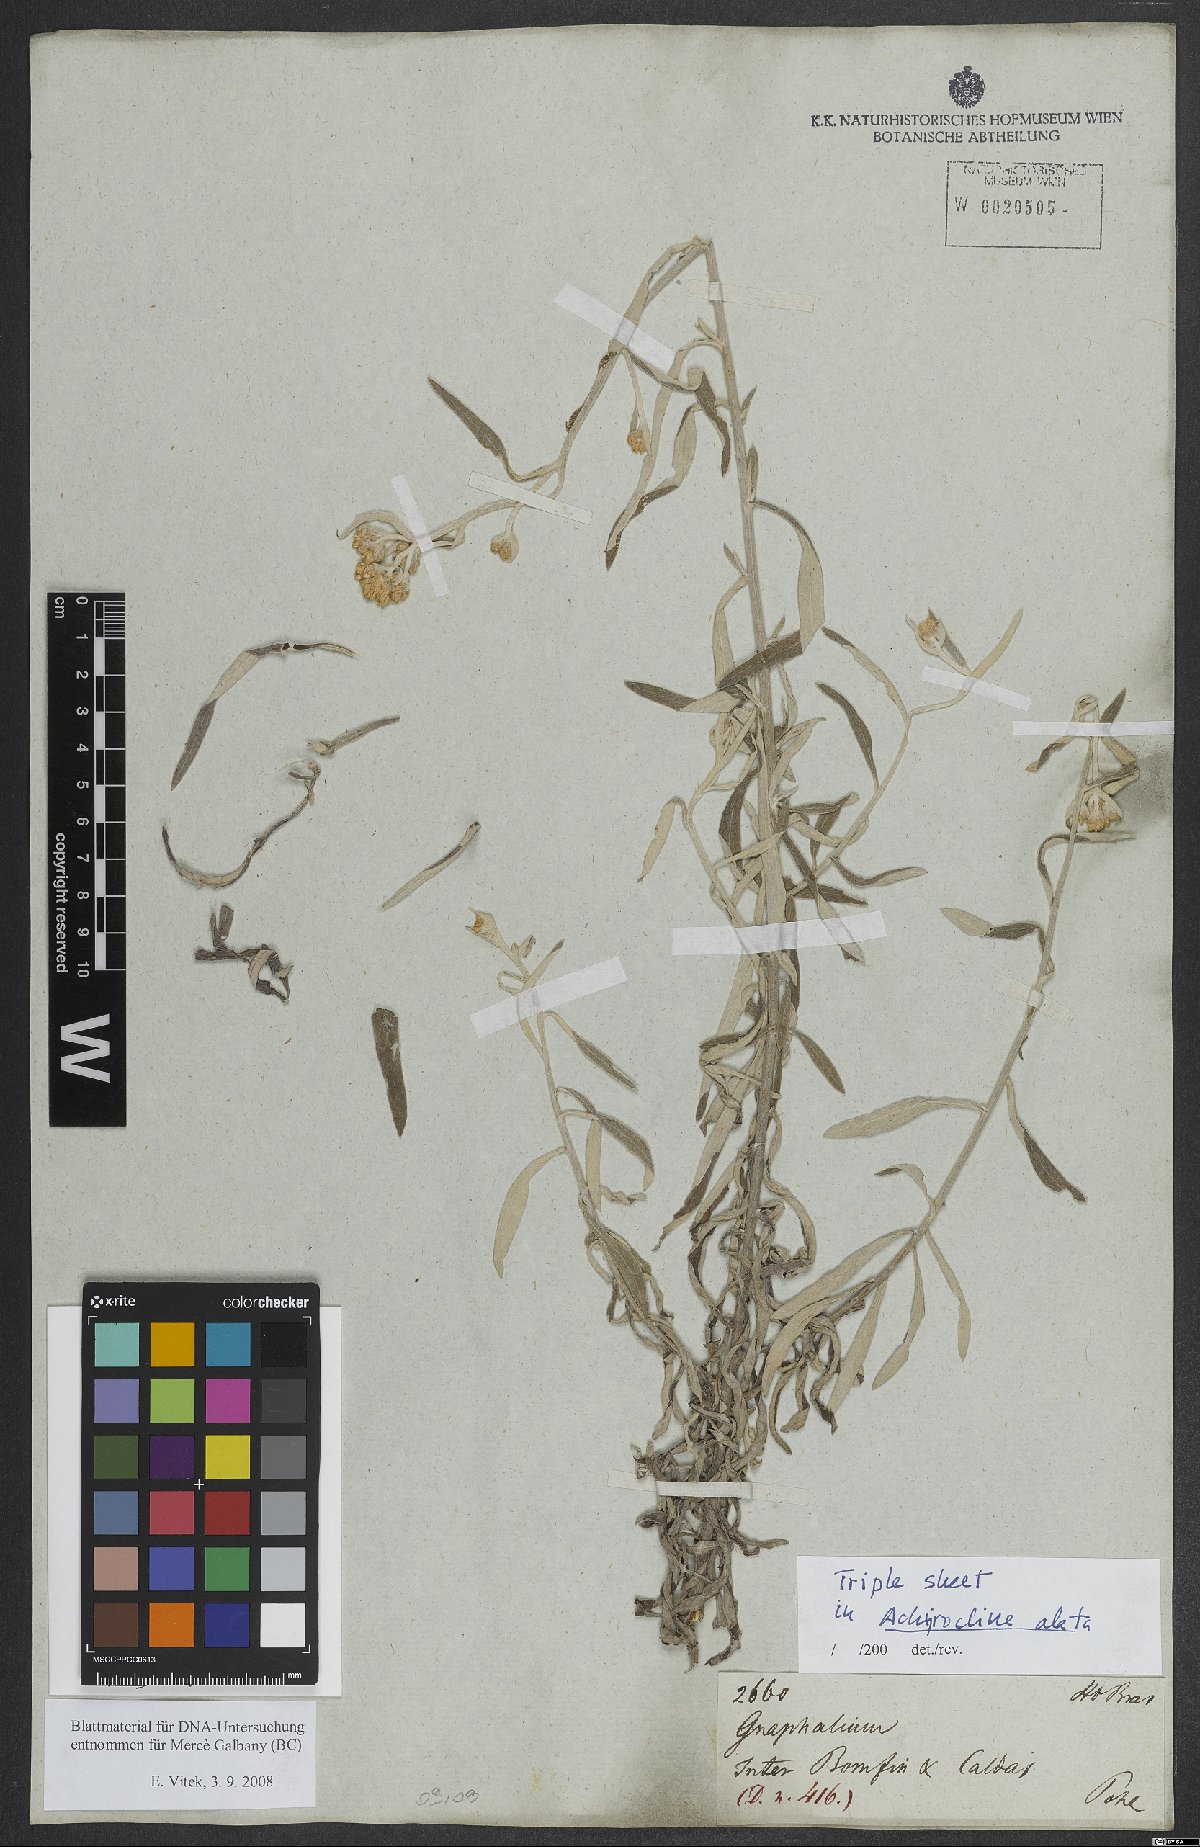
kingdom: Plantae
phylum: Tracheophyta
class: Magnoliopsida
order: Asterales
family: Asteraceae
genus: Achyrocline
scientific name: Achyrocline alata
